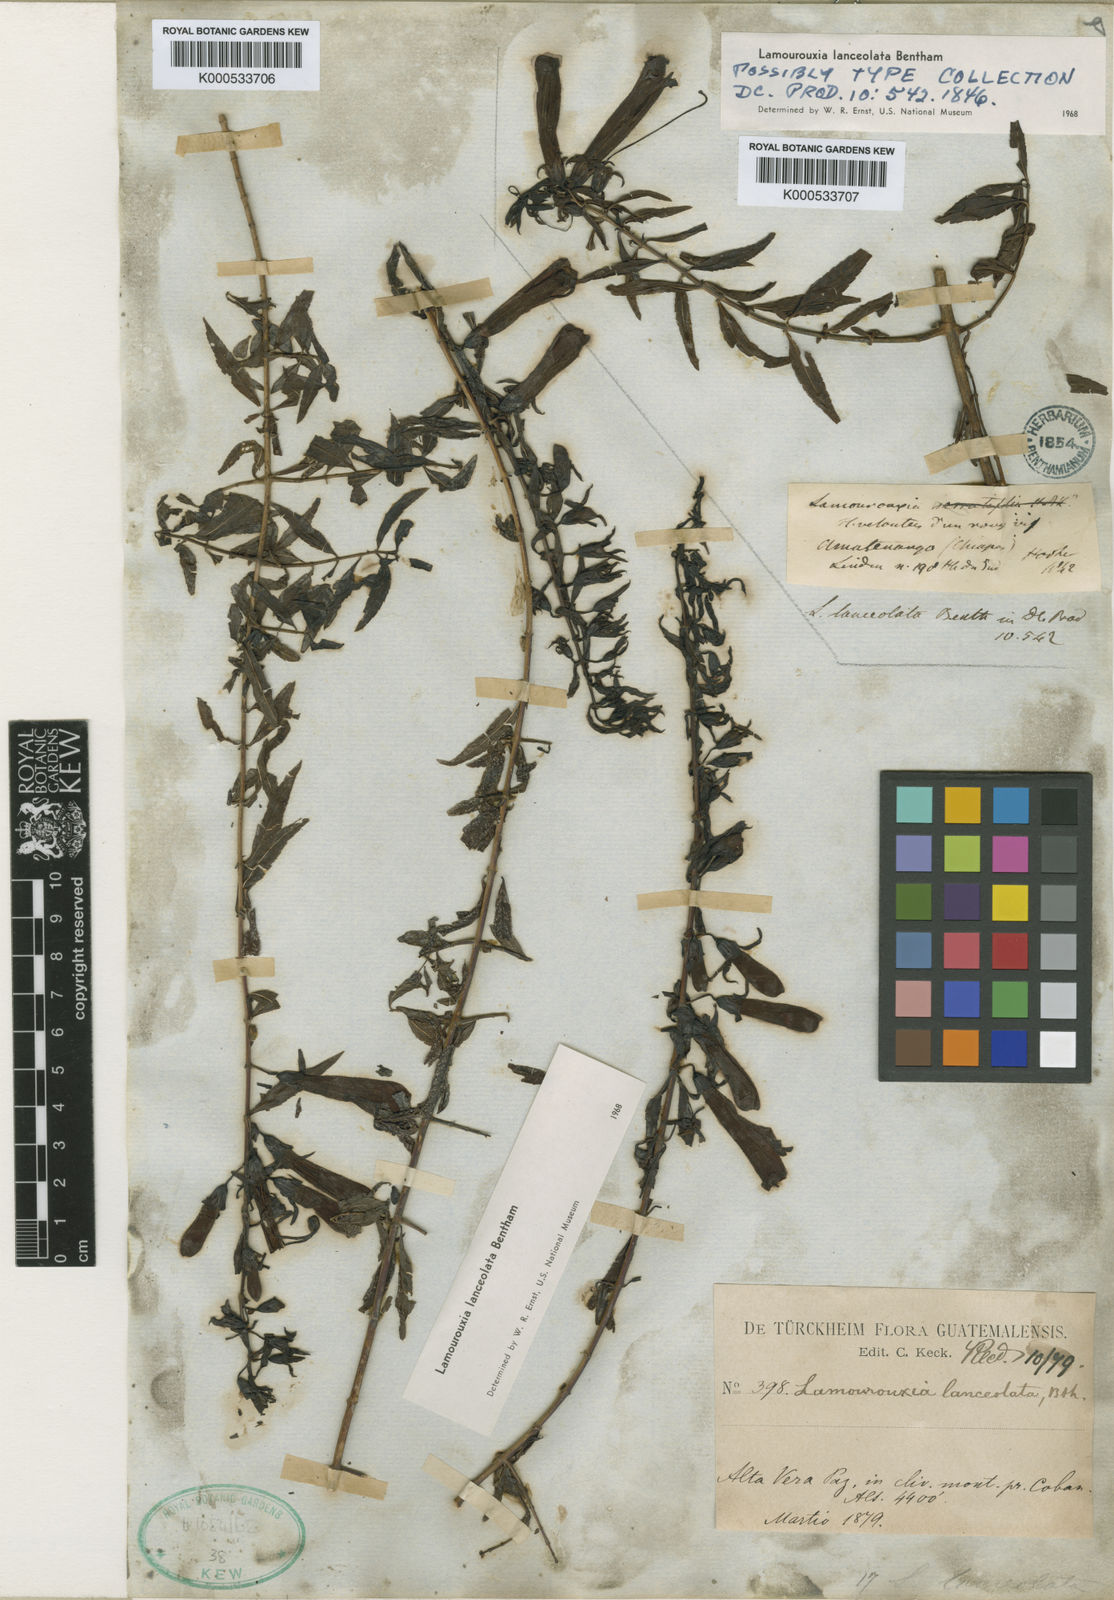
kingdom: Plantae
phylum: Tracheophyta
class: Magnoliopsida
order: Lamiales
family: Orobanchaceae
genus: Lamourouxia
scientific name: Lamourouxia lanceolata
